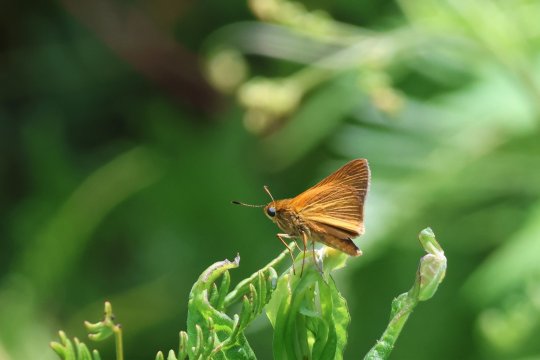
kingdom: Animalia
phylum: Arthropoda
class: Insecta
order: Lepidoptera
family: Hesperiidae
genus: Euphyes
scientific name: Euphyes dion
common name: Dion Skipper
